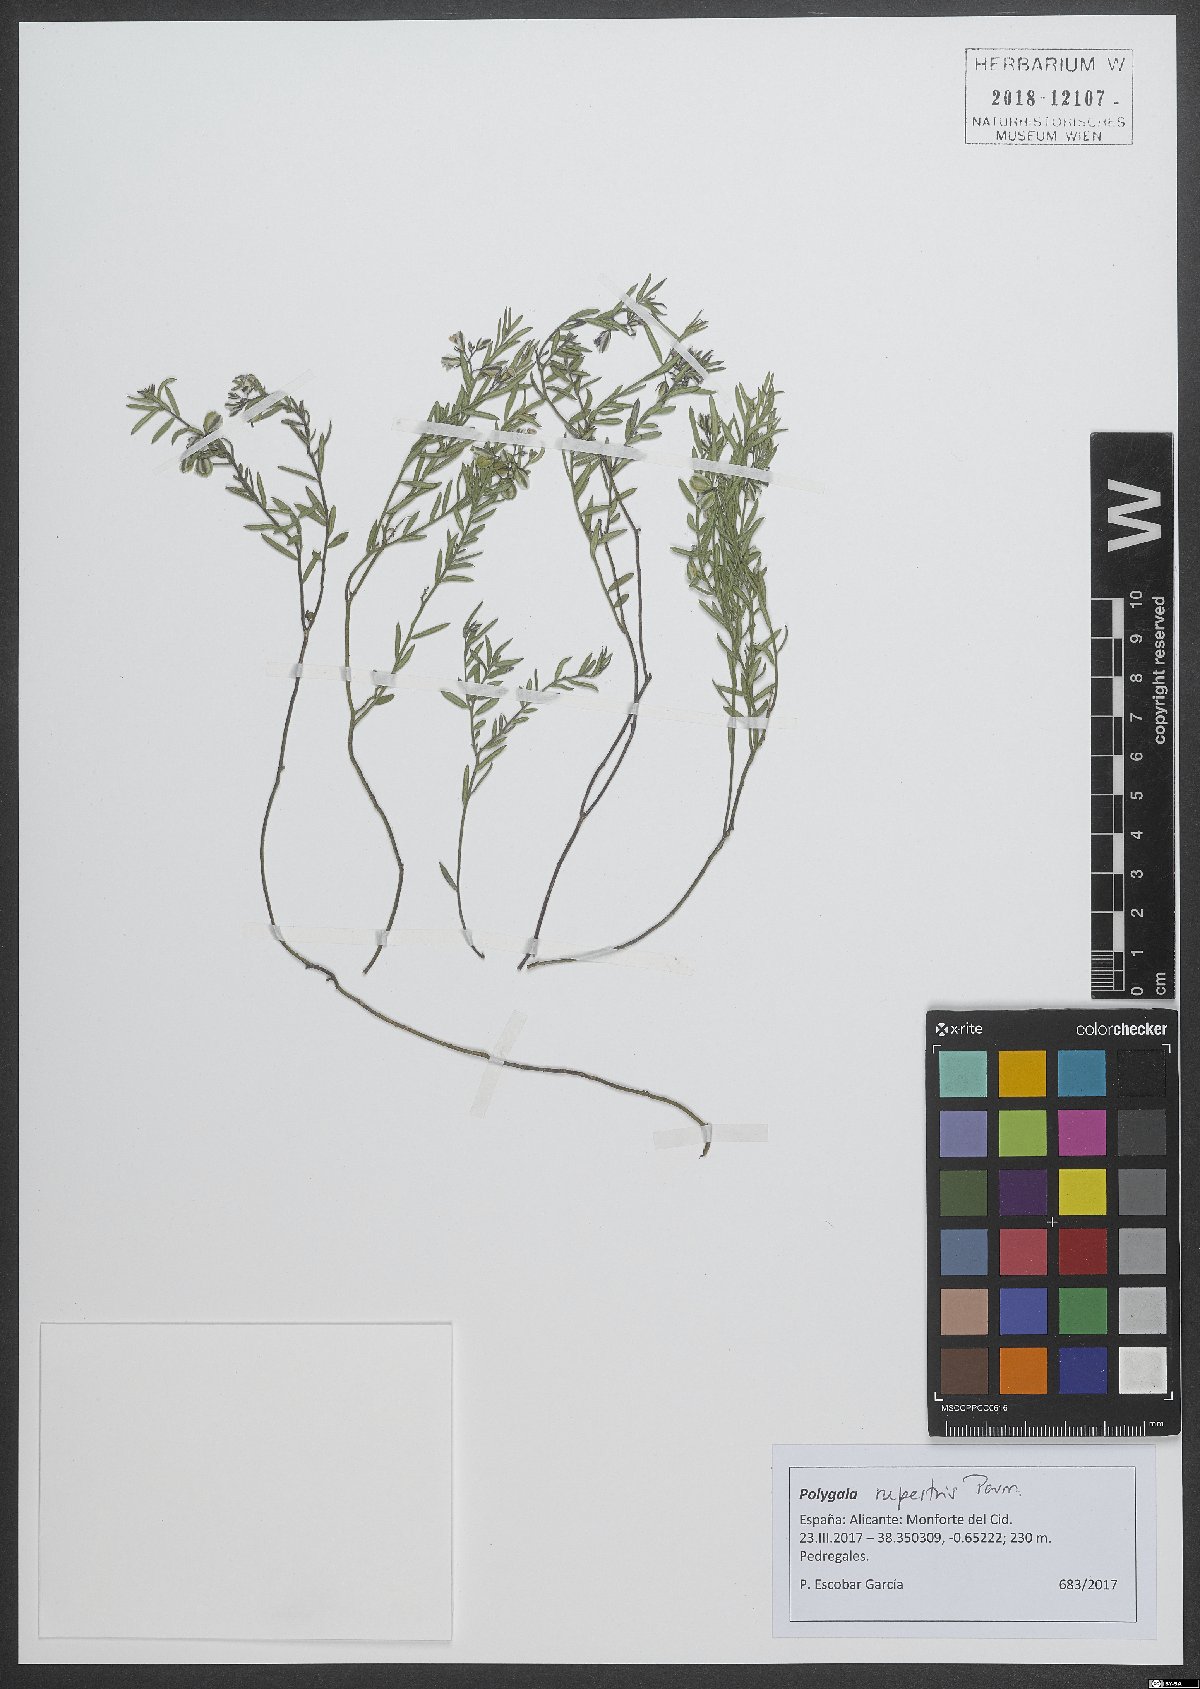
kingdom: Plantae
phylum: Tracheophyta
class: Magnoliopsida
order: Fabales
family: Polygalaceae
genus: Polygala
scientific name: Polygala rupestris
